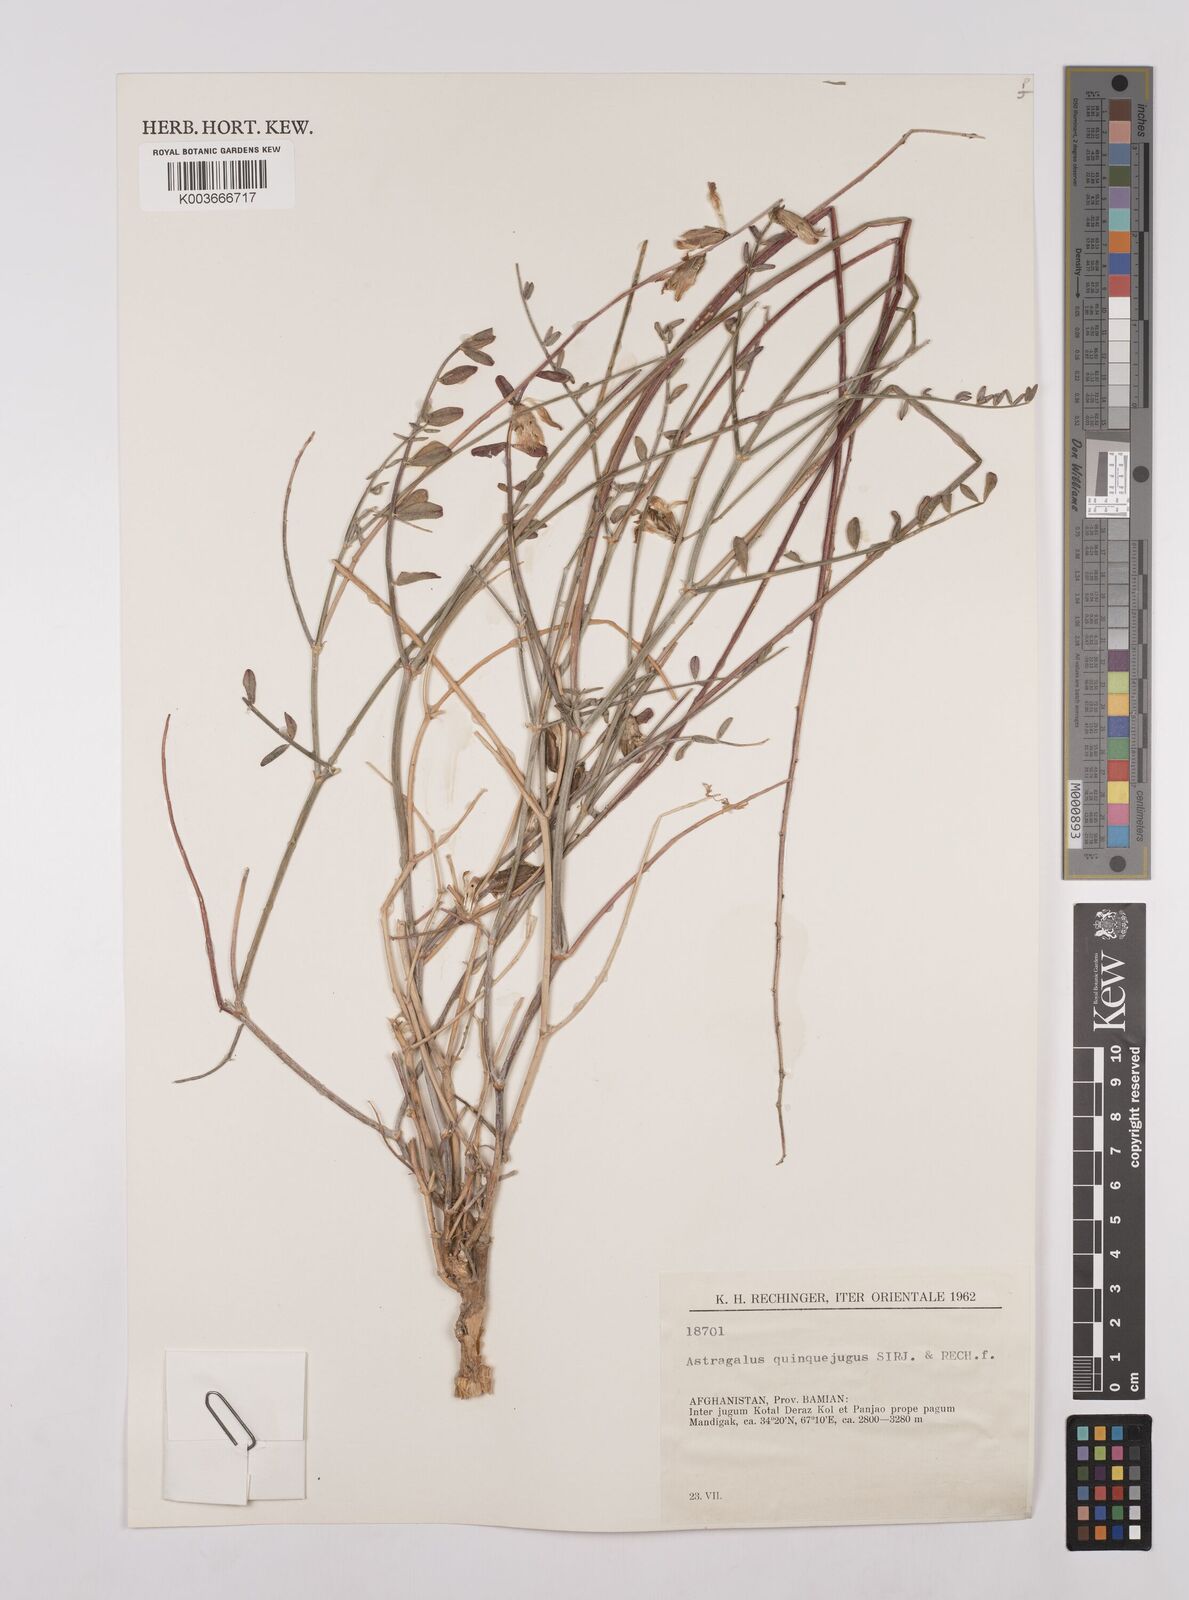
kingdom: Plantae
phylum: Tracheophyta
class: Magnoliopsida
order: Fabales
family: Fabaceae
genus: Astragalus
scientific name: Astragalus griffithii
